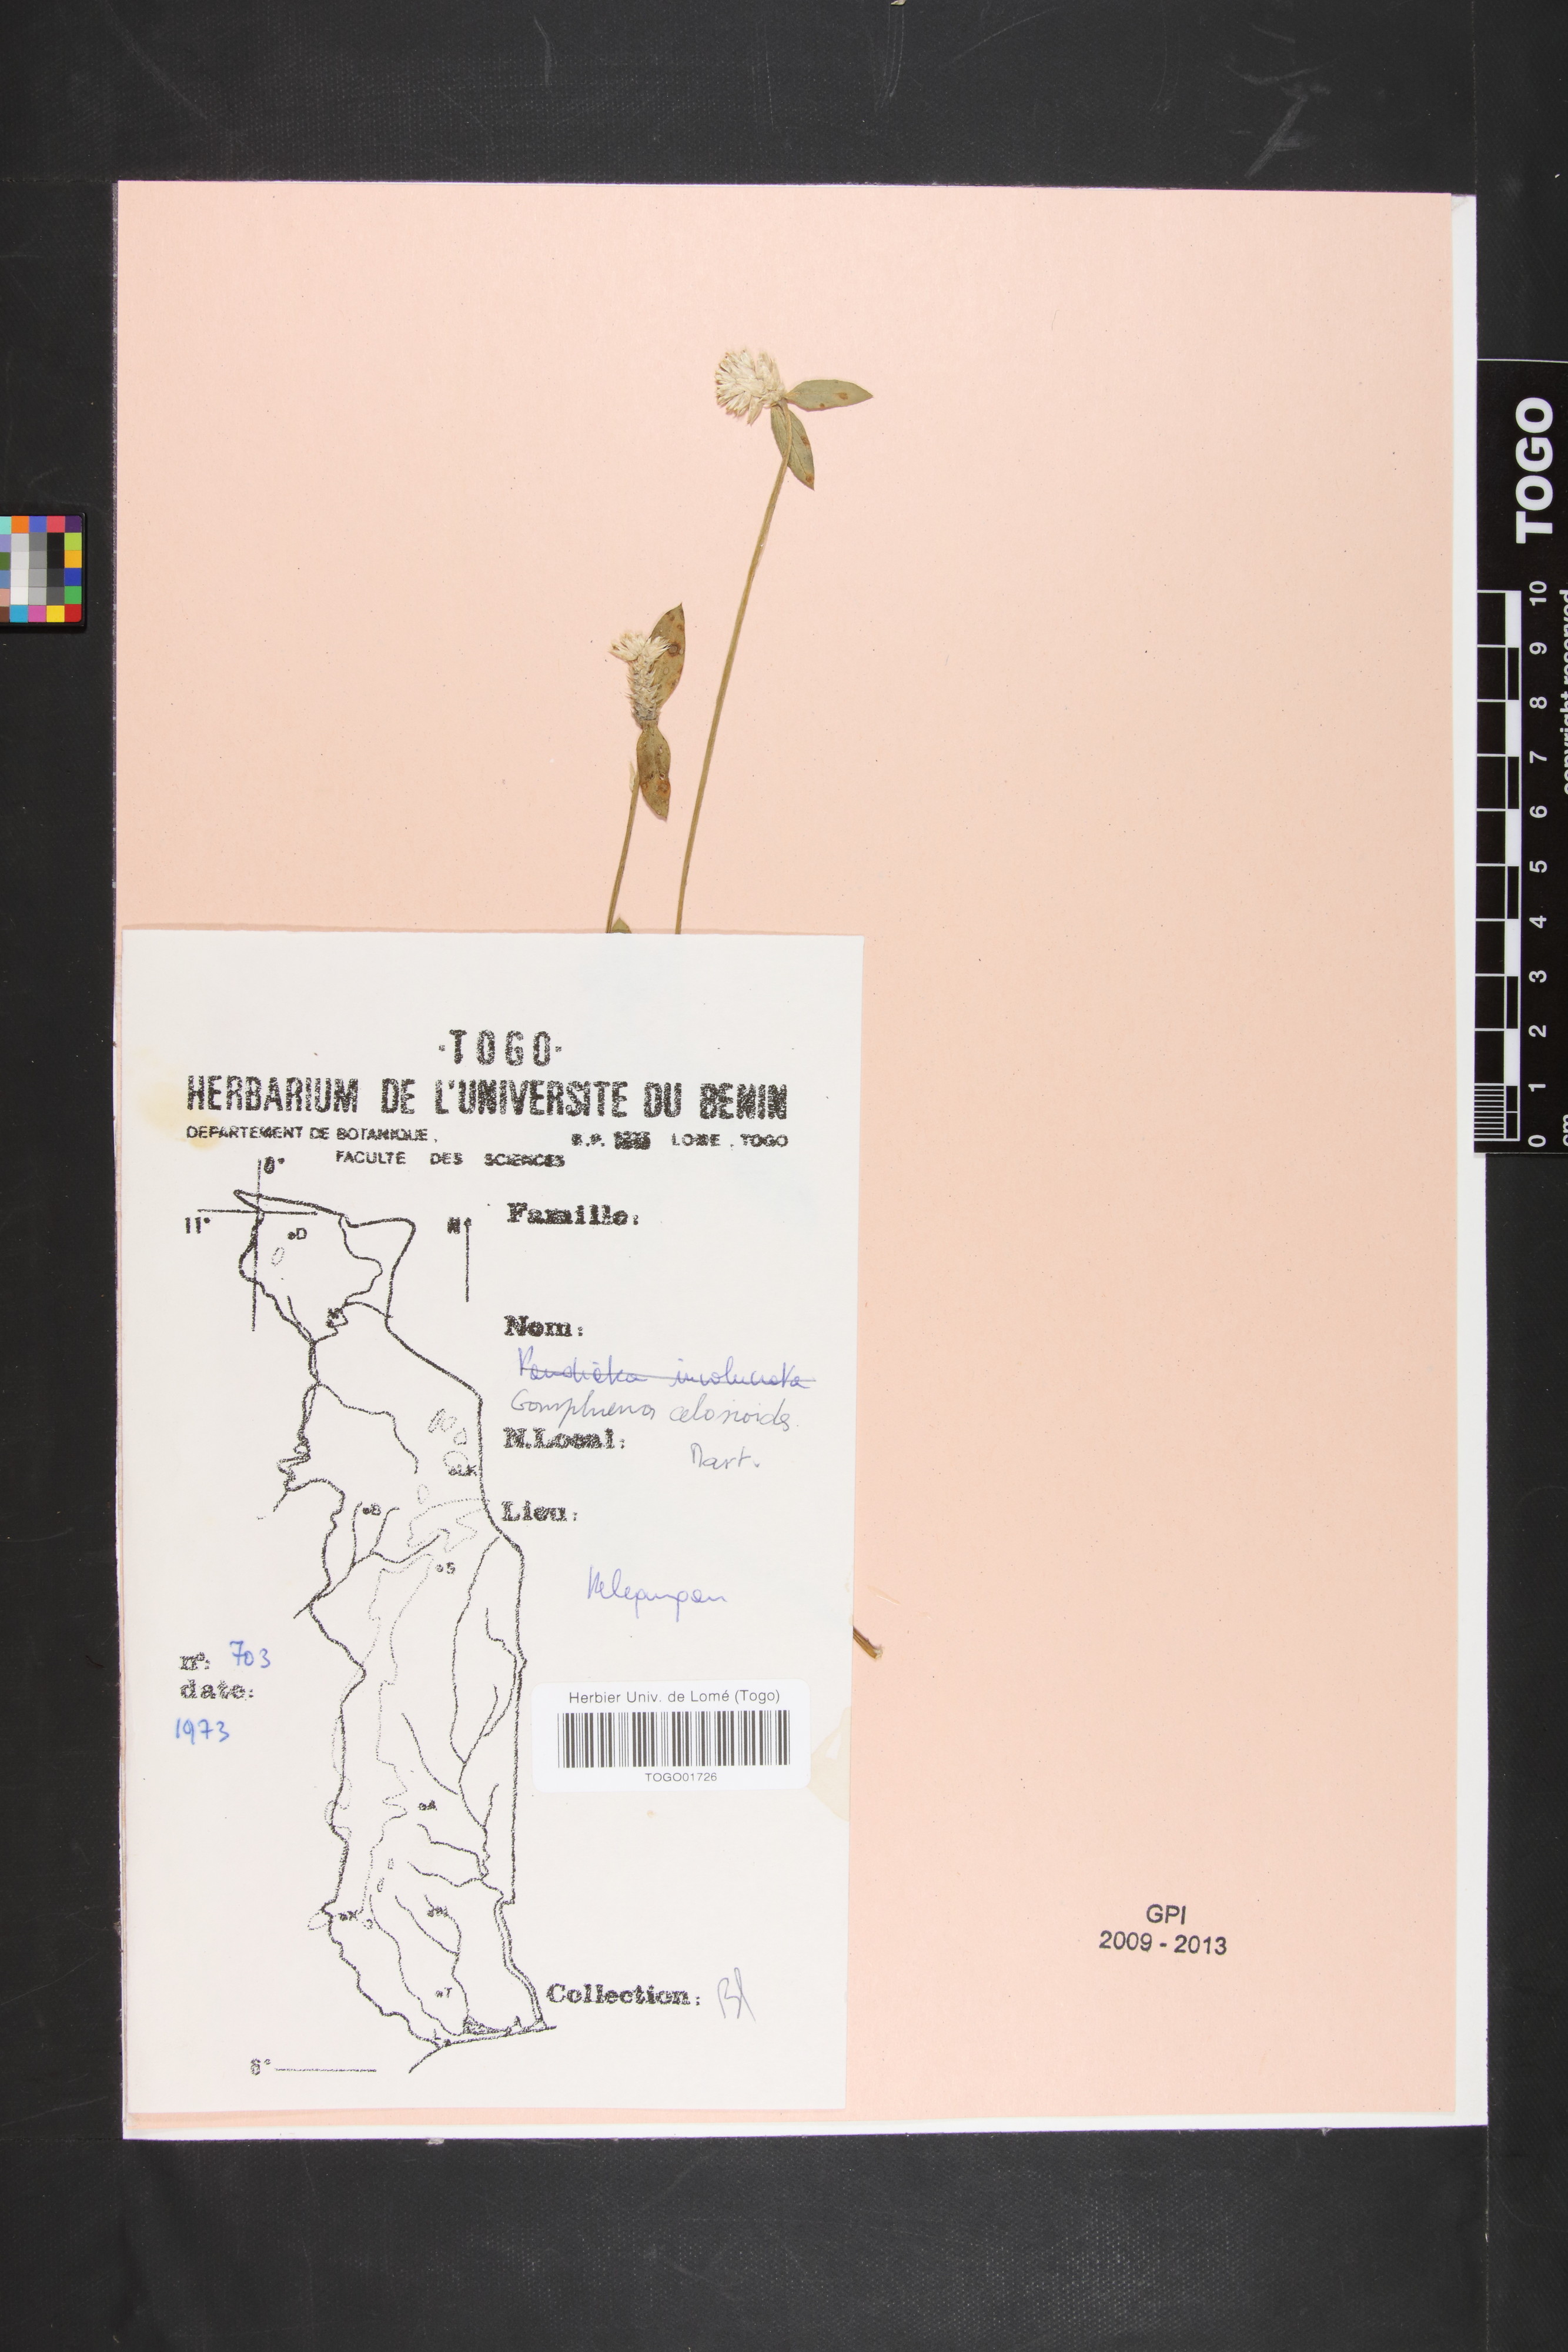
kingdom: Plantae
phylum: Tracheophyta
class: Magnoliopsida
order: Caryophyllales
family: Amaranthaceae
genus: Gomphrena
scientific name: Gomphrena celosioides
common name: Gomphrena-weed
